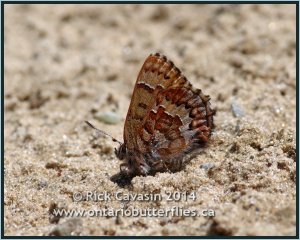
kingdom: Animalia
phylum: Arthropoda
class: Insecta
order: Lepidoptera
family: Lycaenidae
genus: Incisalia
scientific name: Incisalia niphon
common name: Eastern Pine Elfin
